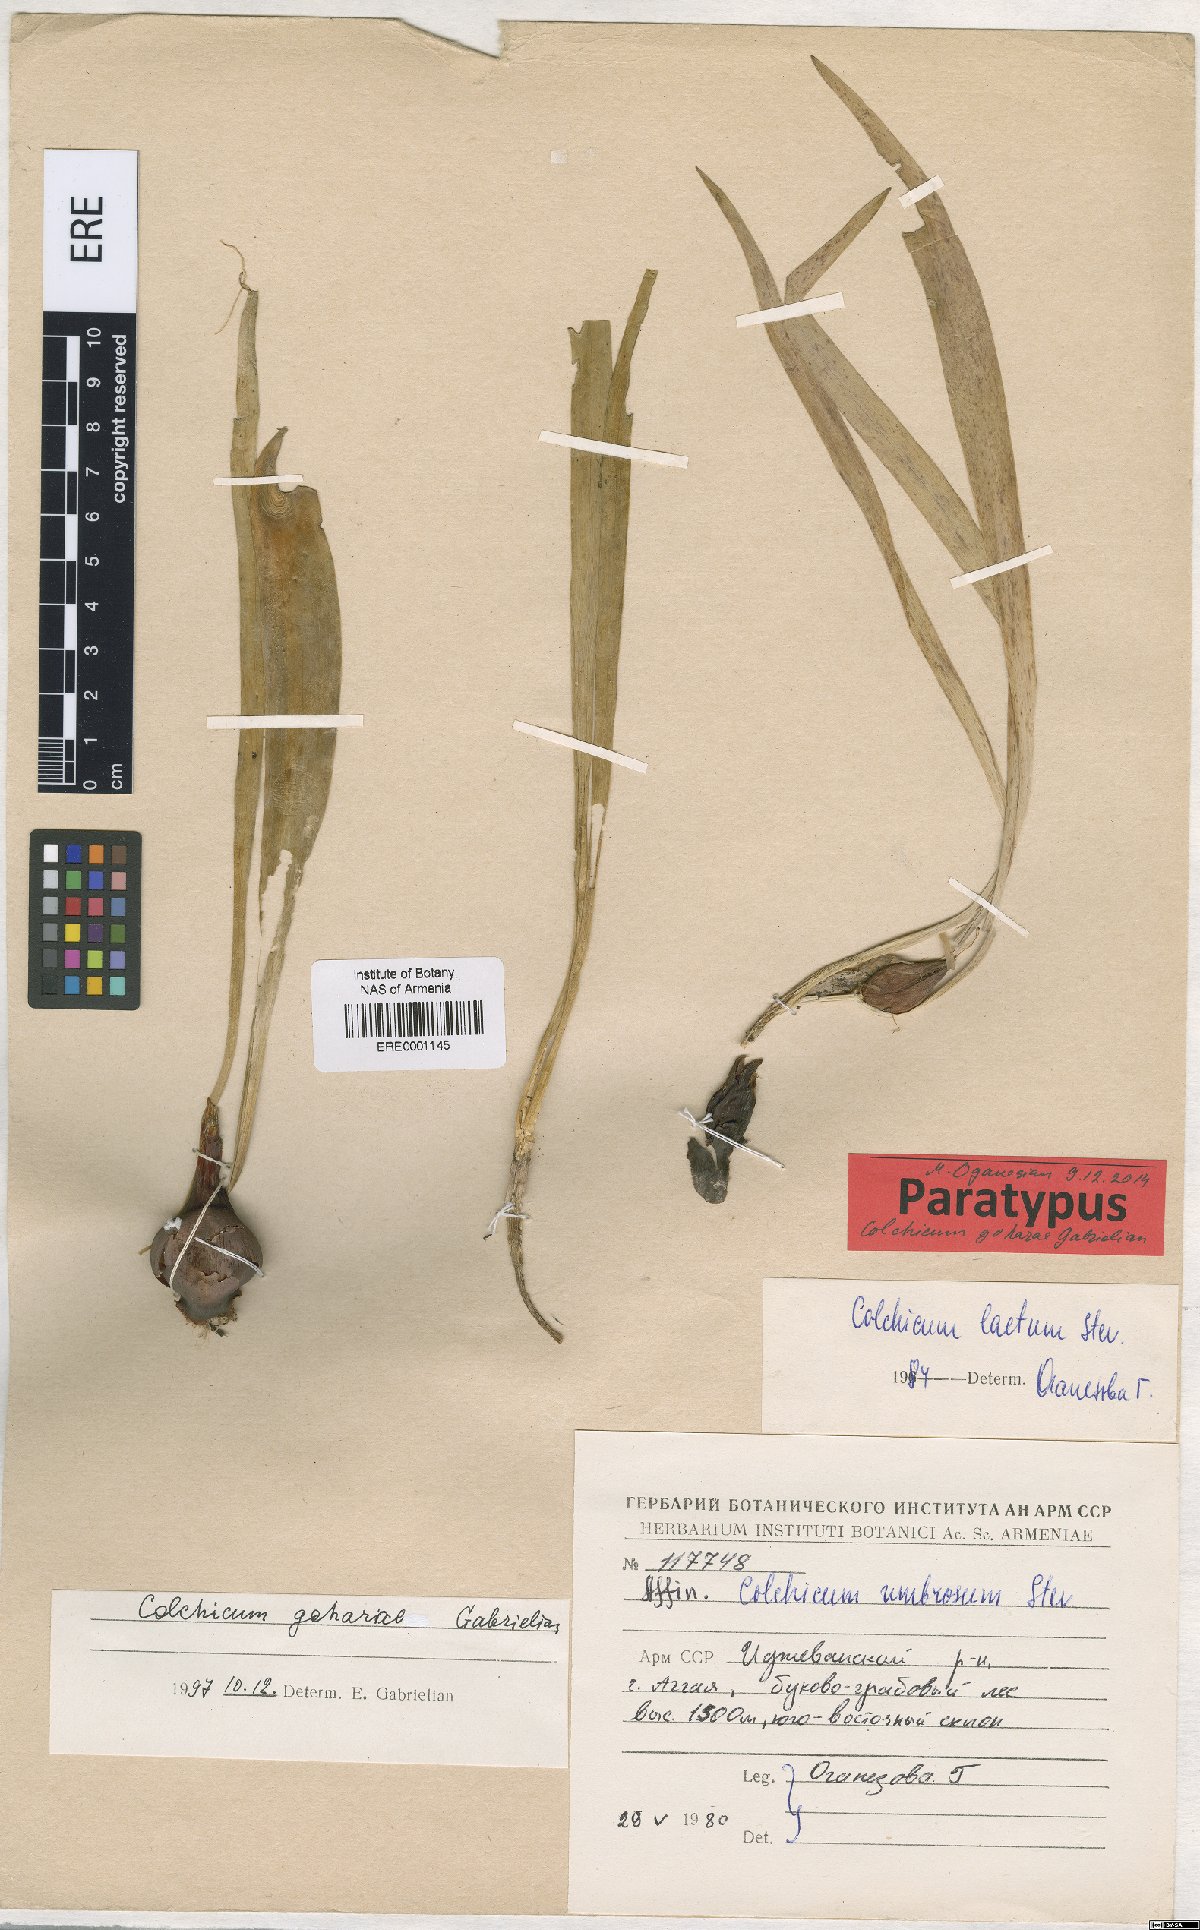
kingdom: Plantae
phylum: Tracheophyta
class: Liliopsida
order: Liliales
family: Colchicaceae
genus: Colchicum
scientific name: Colchicum szovitsii
